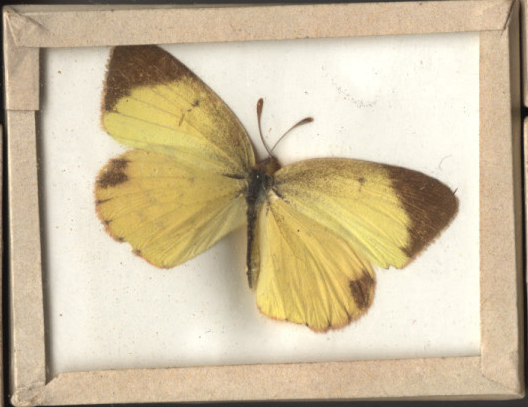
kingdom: Animalia
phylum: Arthropoda
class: Insecta
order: Lepidoptera
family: Pieridae
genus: Eurema
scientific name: Eurema lisa
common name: Little Yellow
